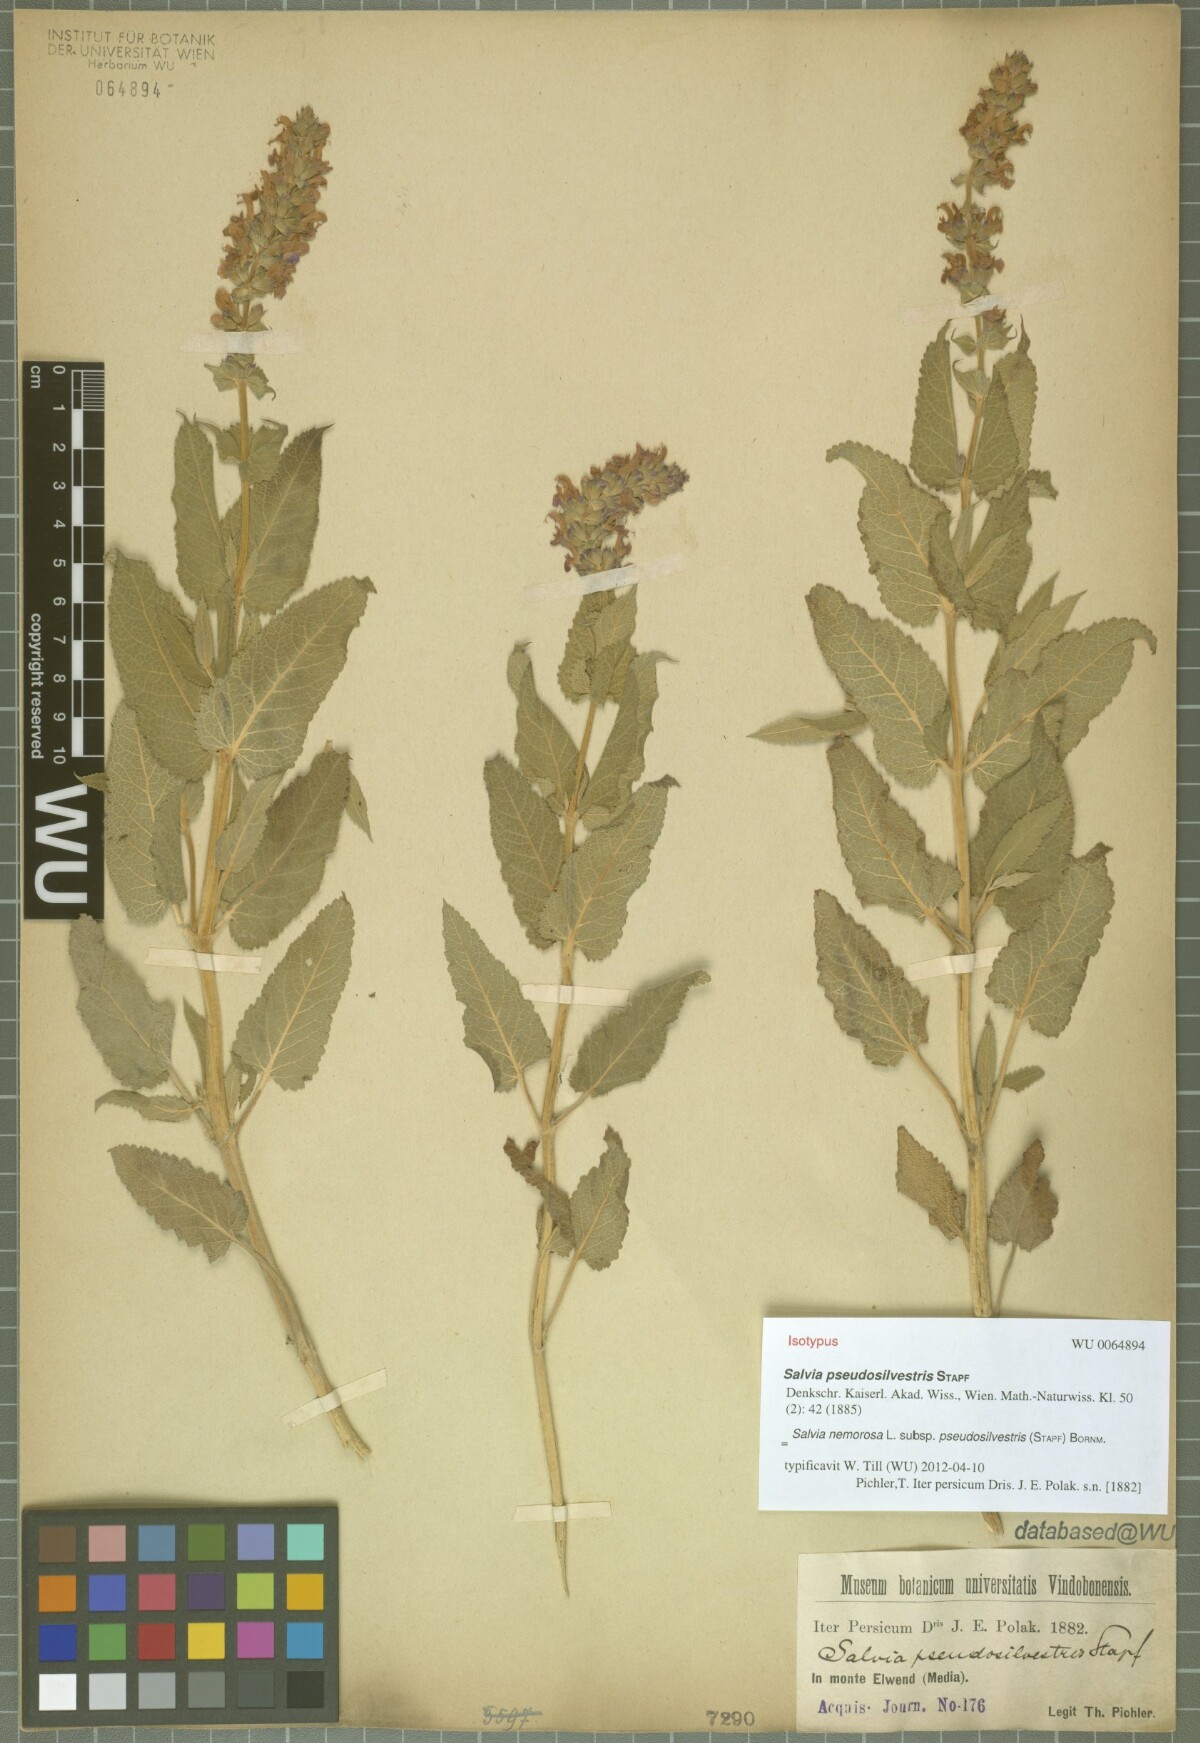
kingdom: Plantae
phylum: Tracheophyta
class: Magnoliopsida
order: Lamiales
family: Lamiaceae
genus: Salvia
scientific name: Salvia nemorosa
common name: Balkan clary
